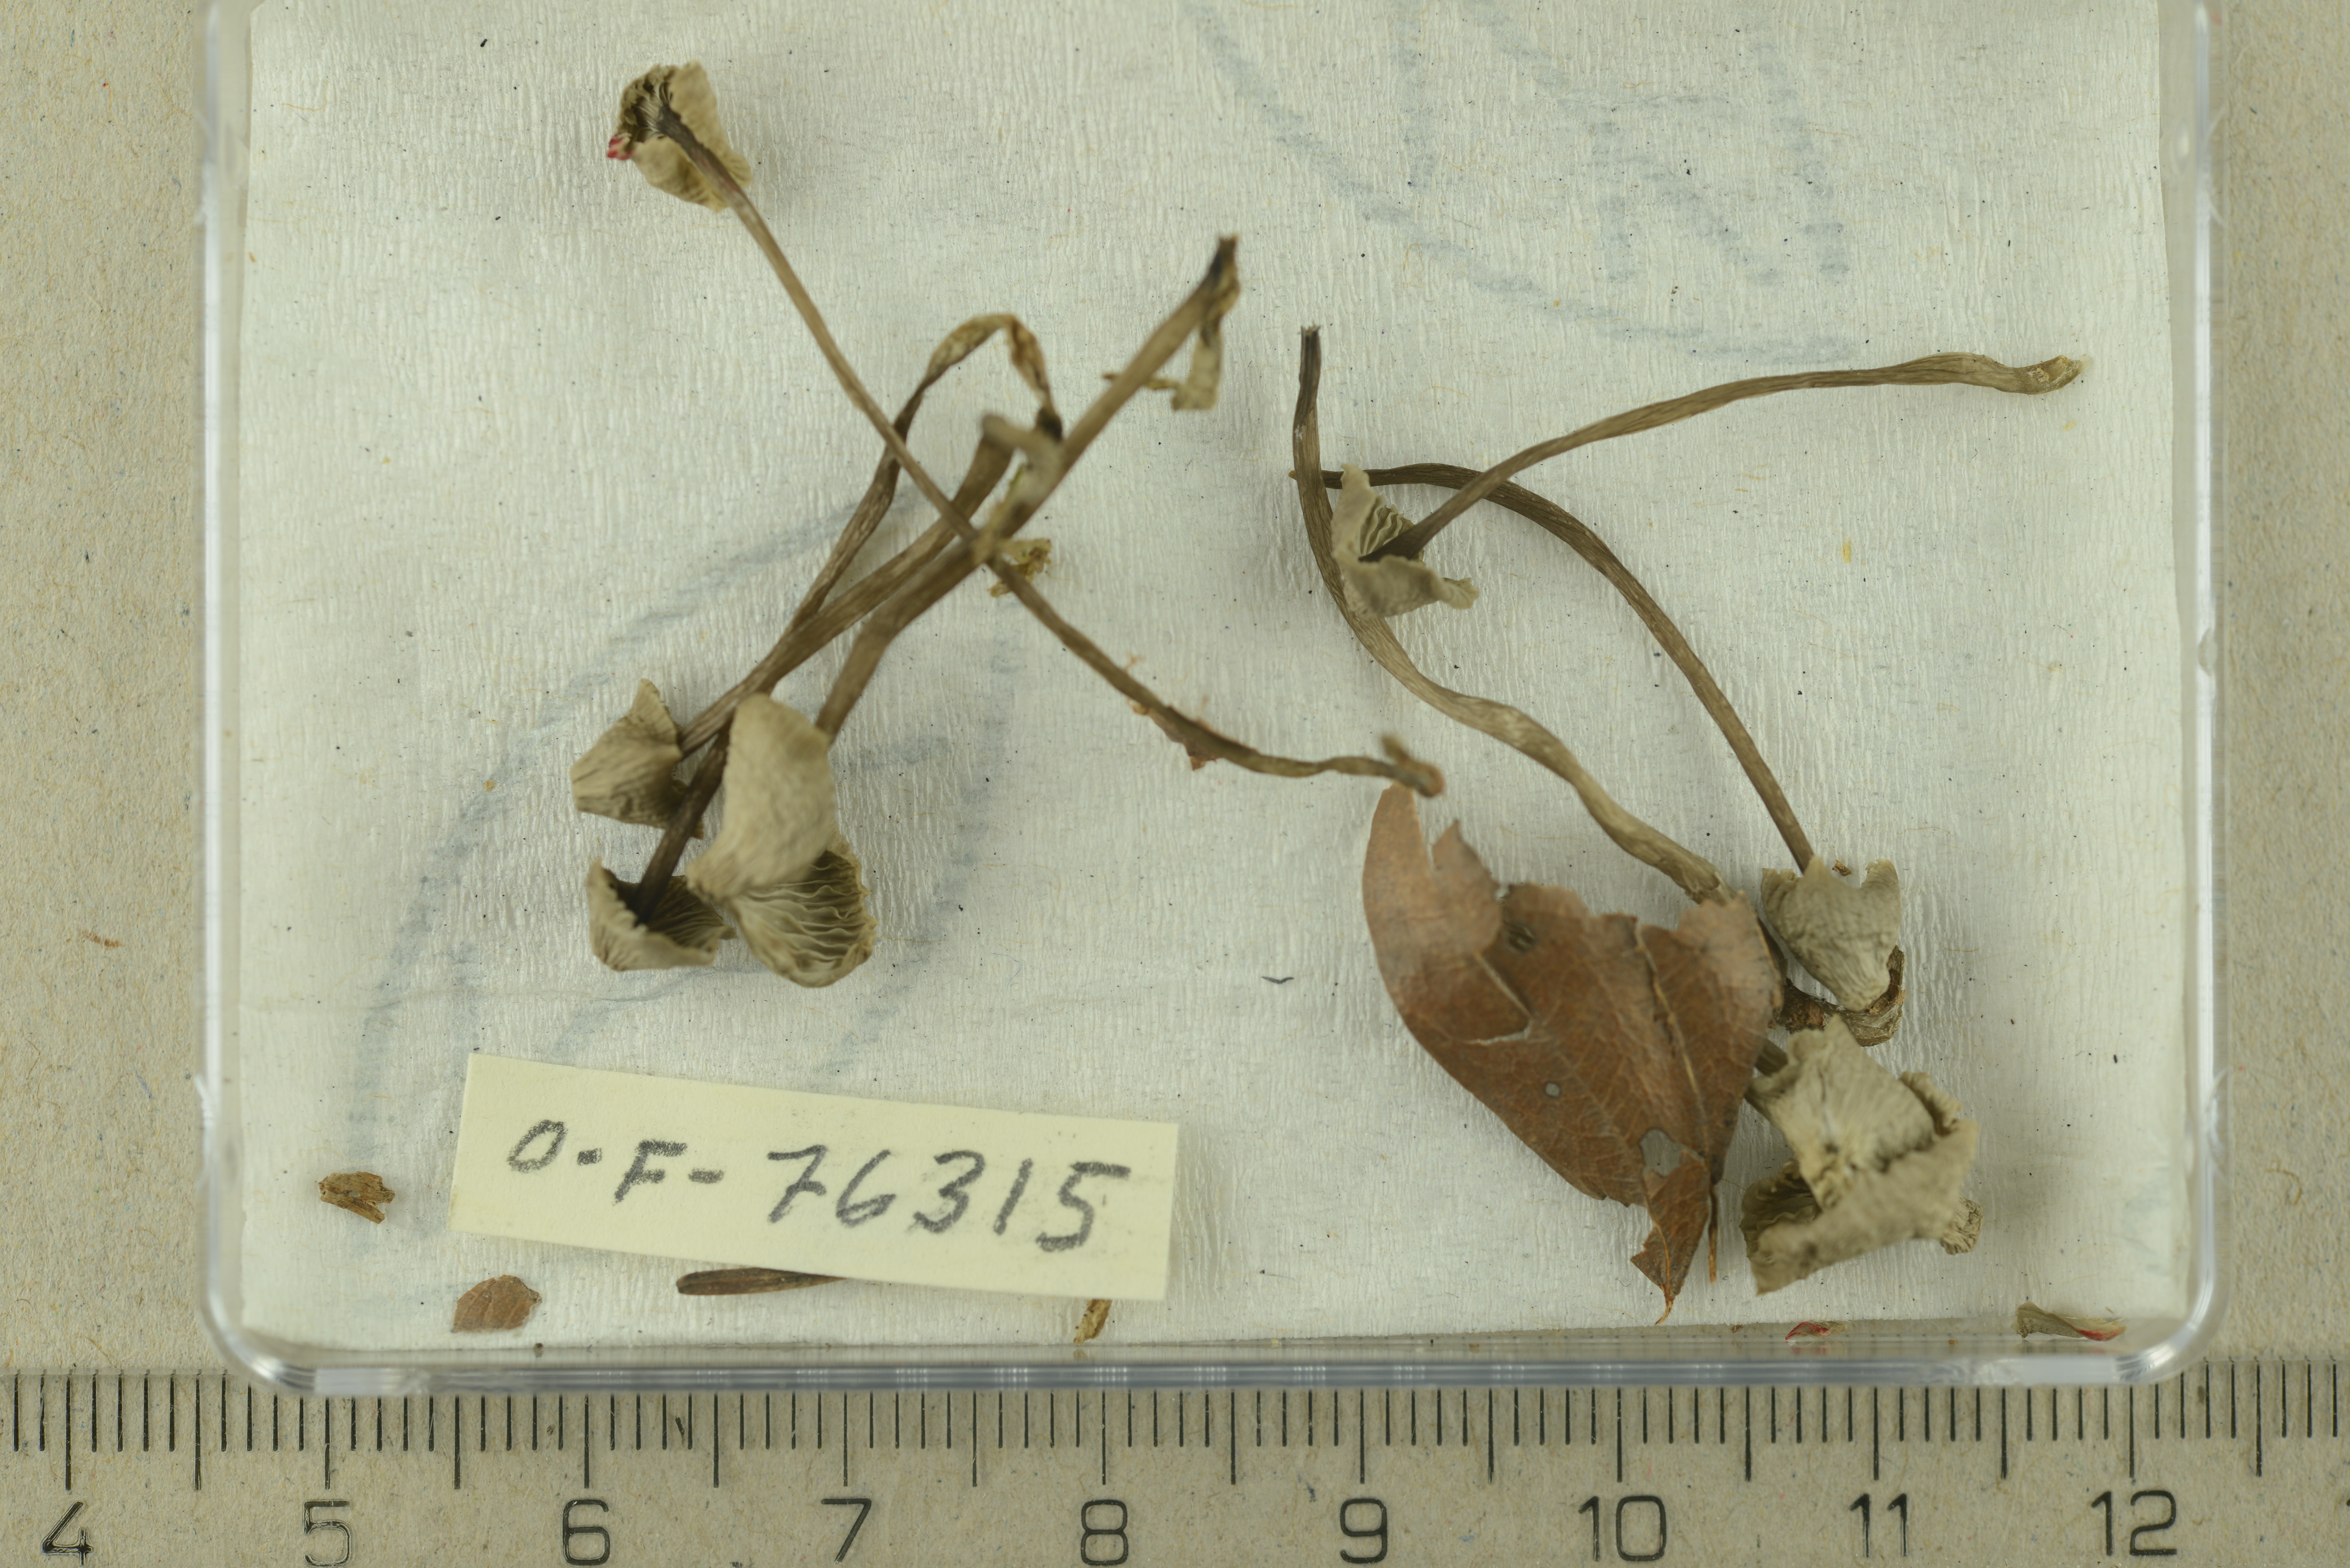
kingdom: Fungi
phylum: Basidiomycota
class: Agaricomycetes
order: Agaricales
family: Mycenaceae
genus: Mycena
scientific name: Mycena fagetorum
